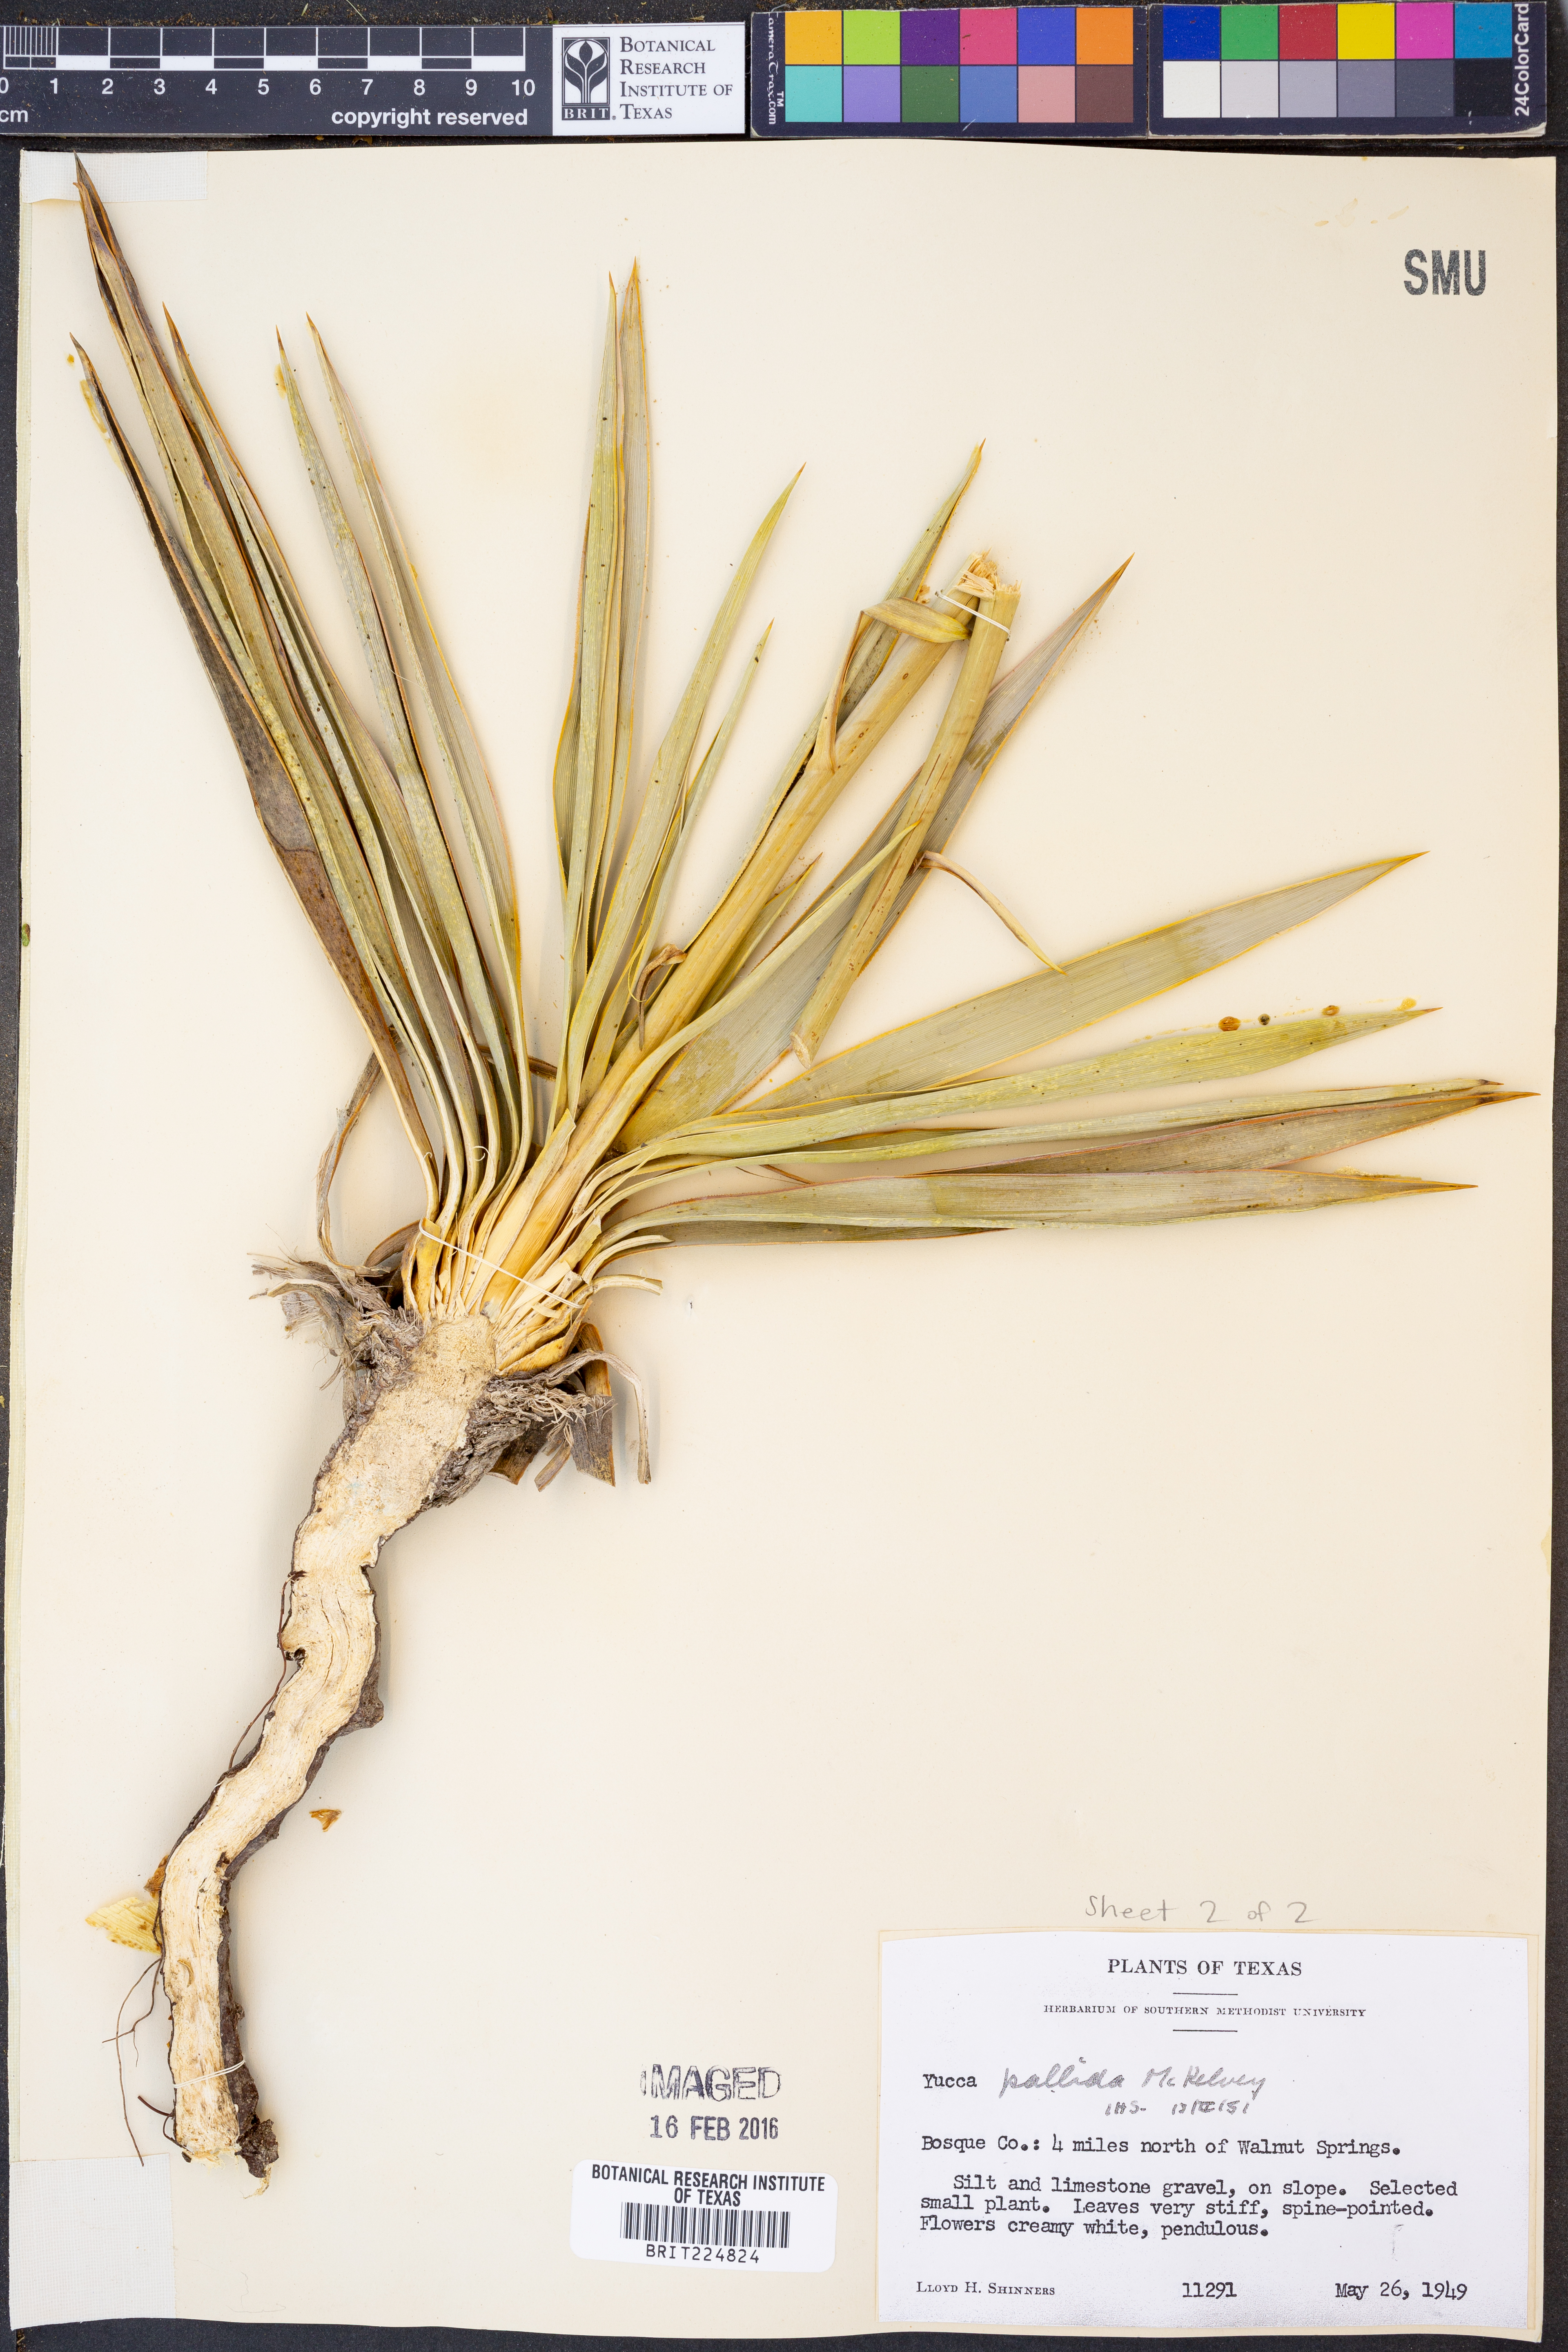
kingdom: Plantae
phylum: Tracheophyta
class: Liliopsida
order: Asparagales
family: Asparagaceae
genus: Yucca
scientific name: Yucca pallida
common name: Pale leaf yucca
